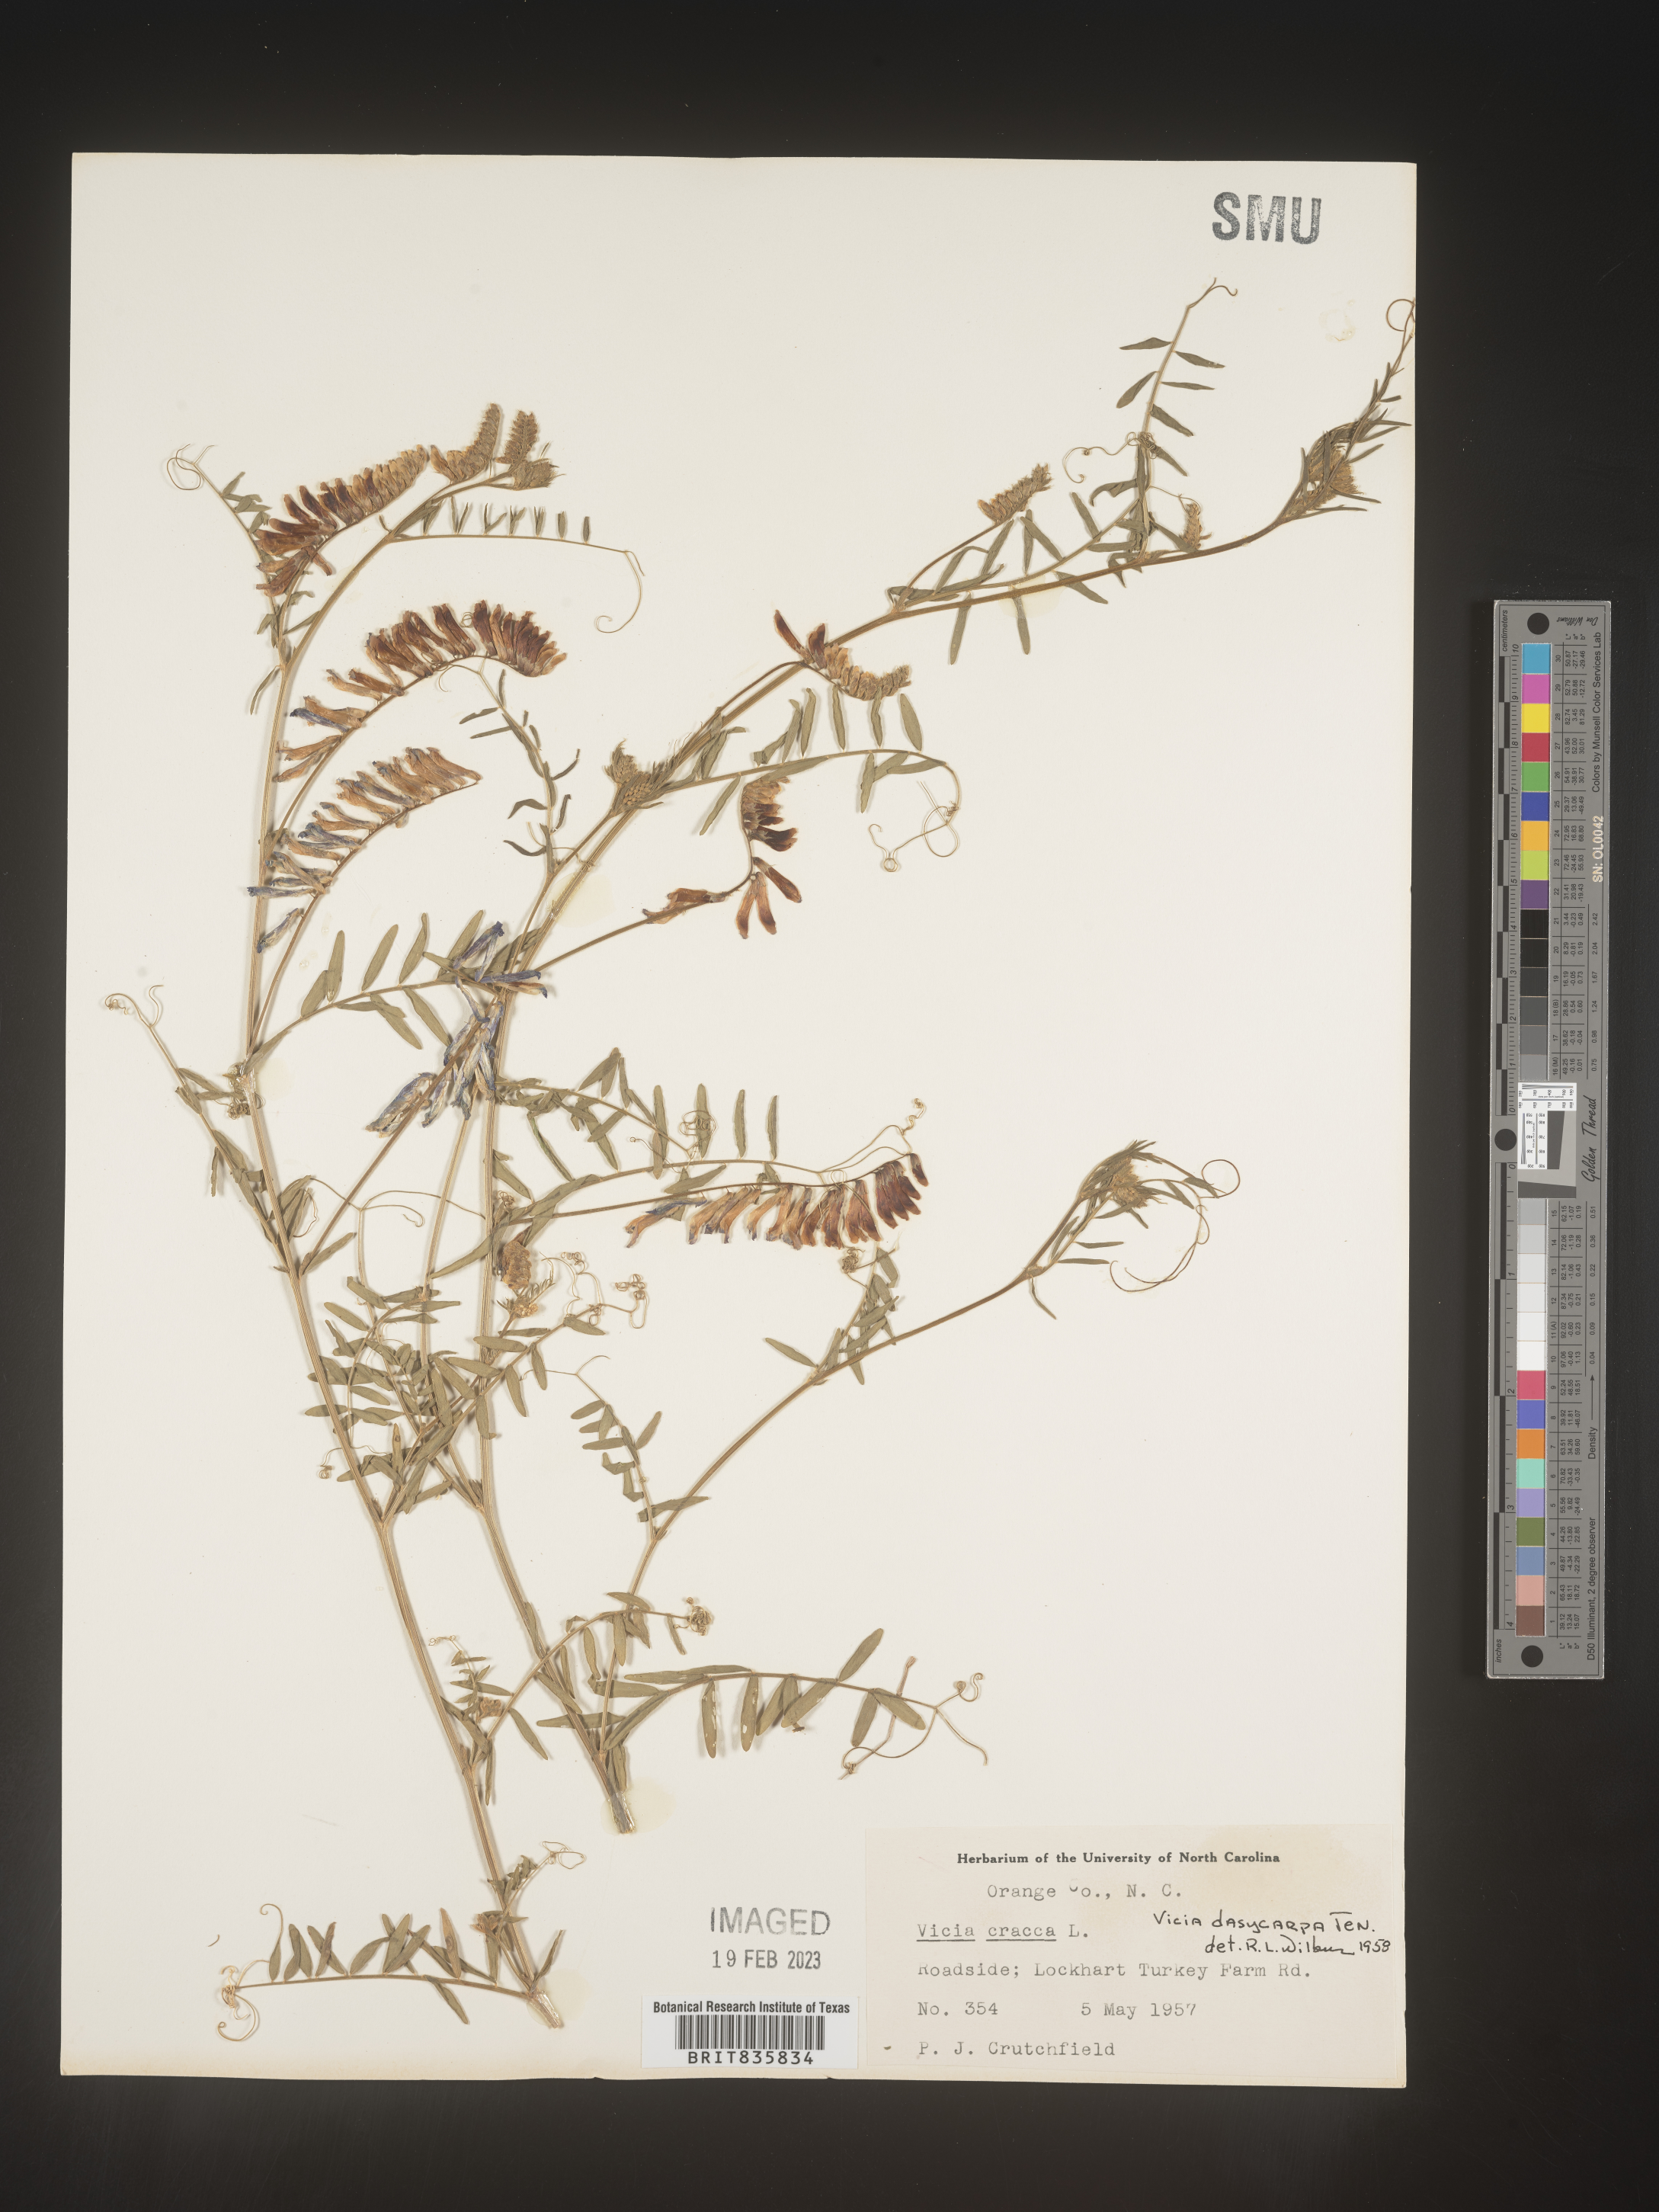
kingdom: Plantae
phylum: Tracheophyta
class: Magnoliopsida
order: Fabales
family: Fabaceae
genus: Vicia
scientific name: Vicia villosa
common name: Fodder vetch
